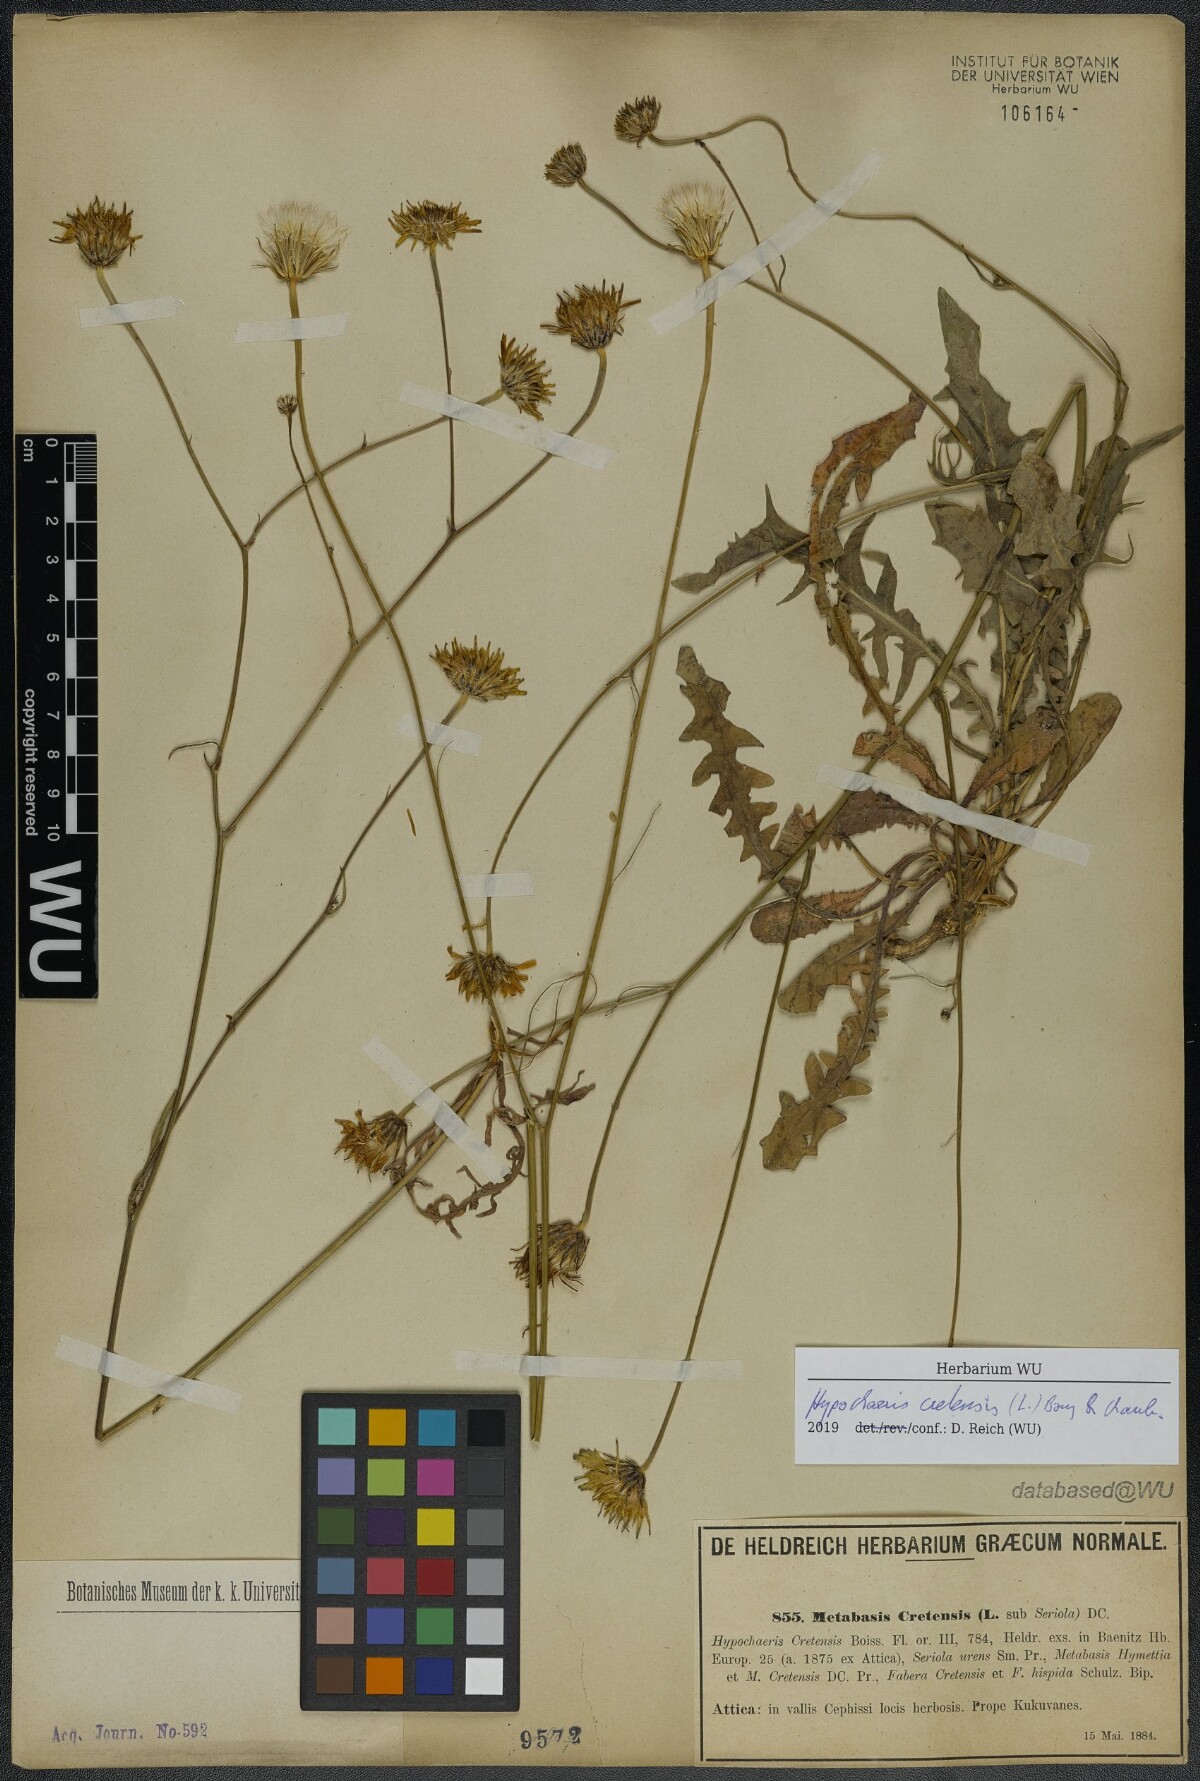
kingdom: Plantae
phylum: Tracheophyta
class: Magnoliopsida
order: Asterales
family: Asteraceae
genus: Hypochaeris
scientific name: Hypochaeris cretensis
